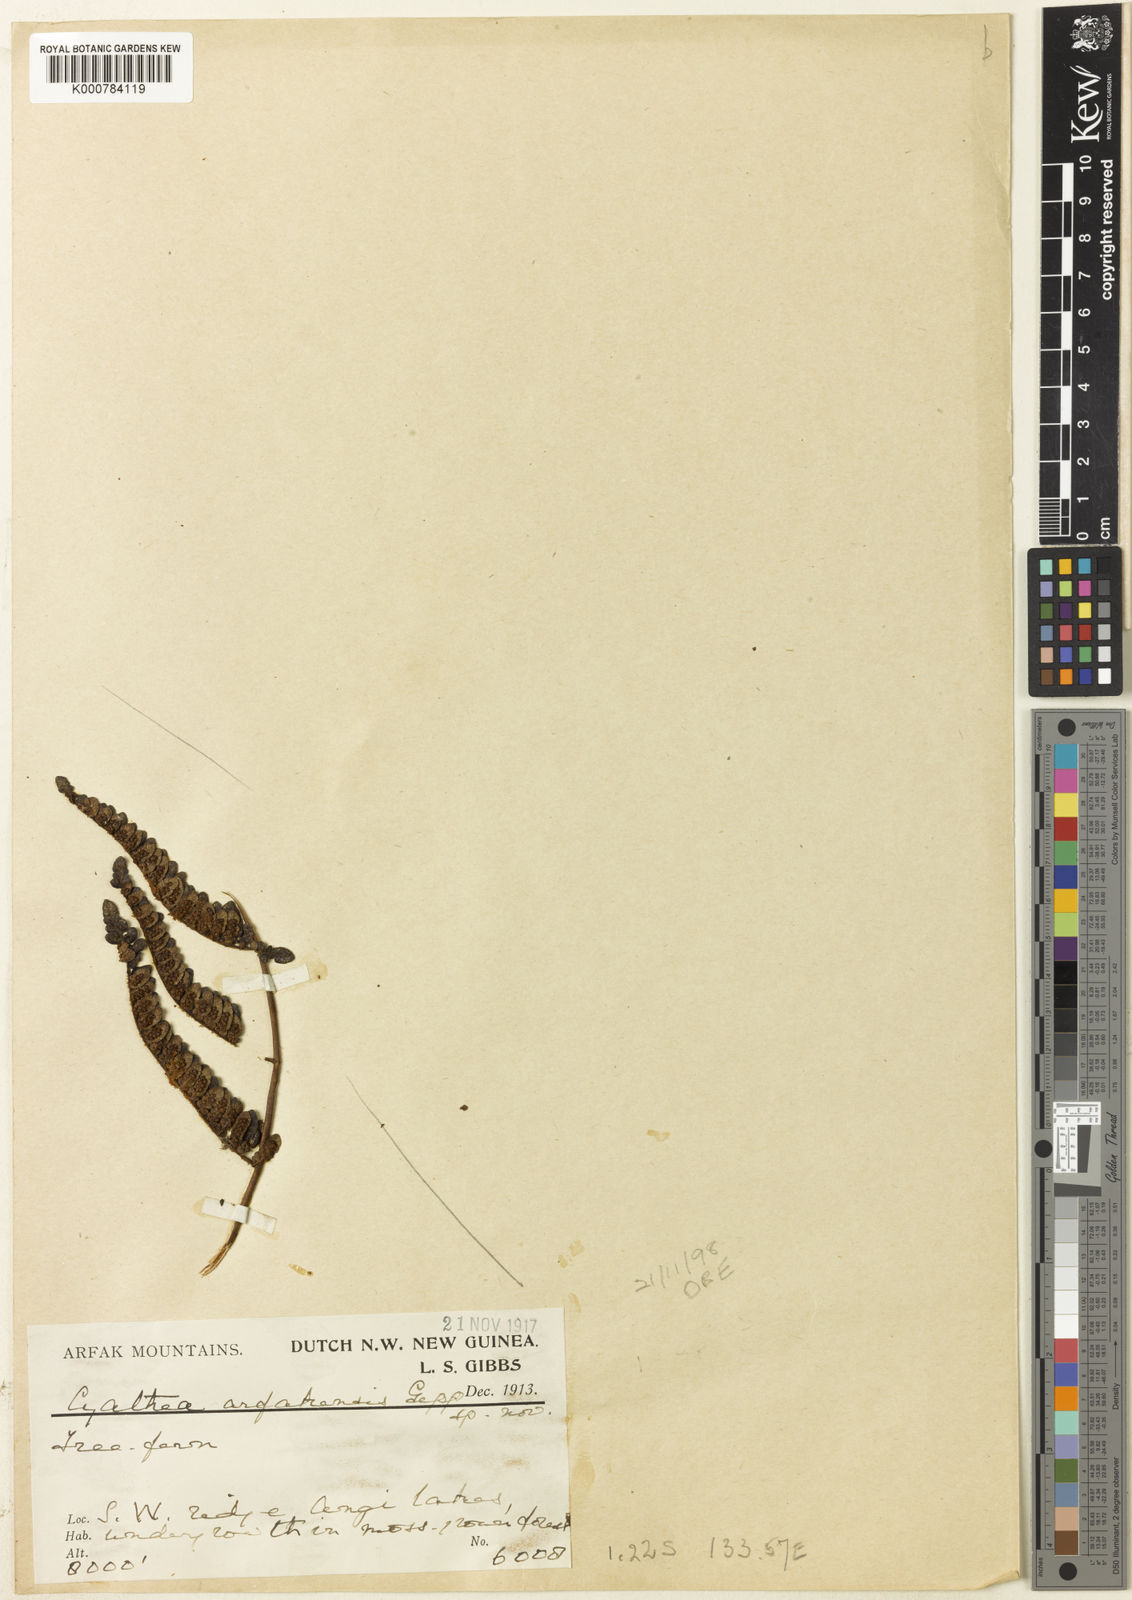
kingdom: Plantae
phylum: Tracheophyta
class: Polypodiopsida
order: Cyatheales
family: Cyatheaceae
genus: Gymnosphaera
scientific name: Gymnosphaera biformis
